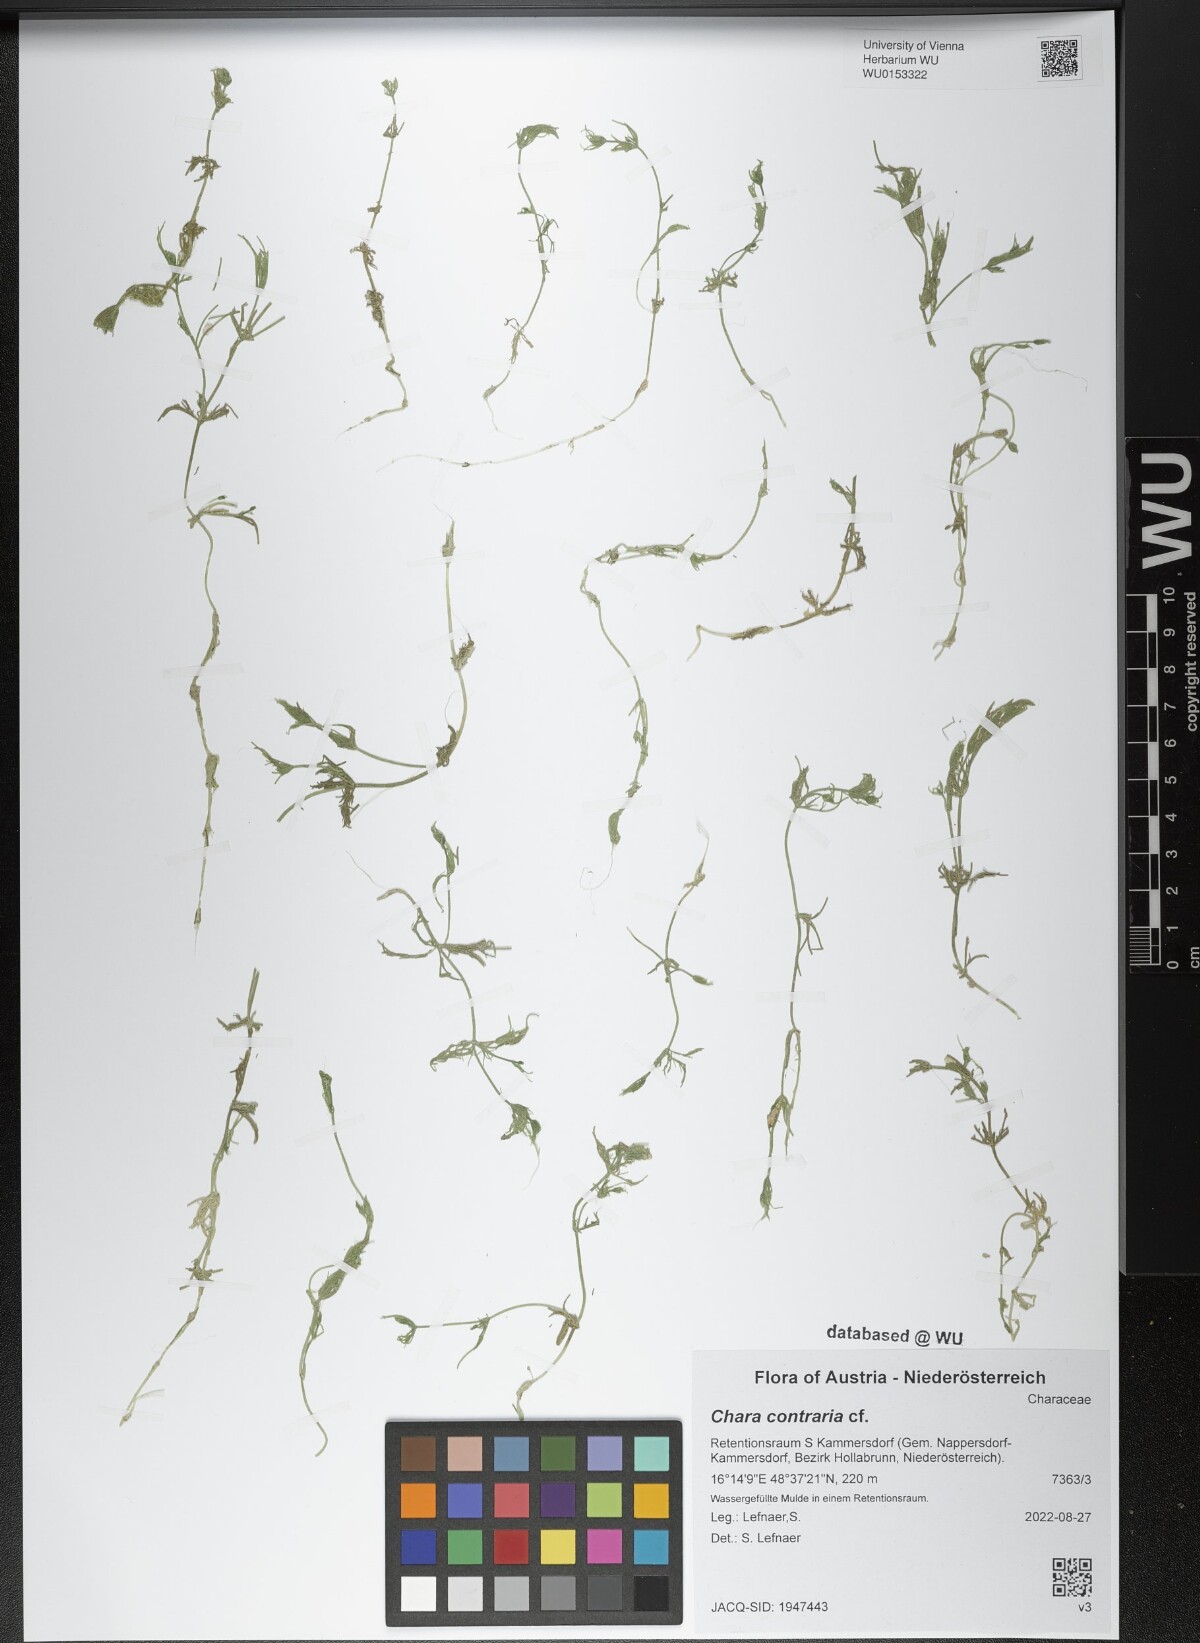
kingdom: Plantae
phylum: Charophyta
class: Charophyceae
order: Charales
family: Characeae
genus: Chara
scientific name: Chara contraria
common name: Opposite stonewort
